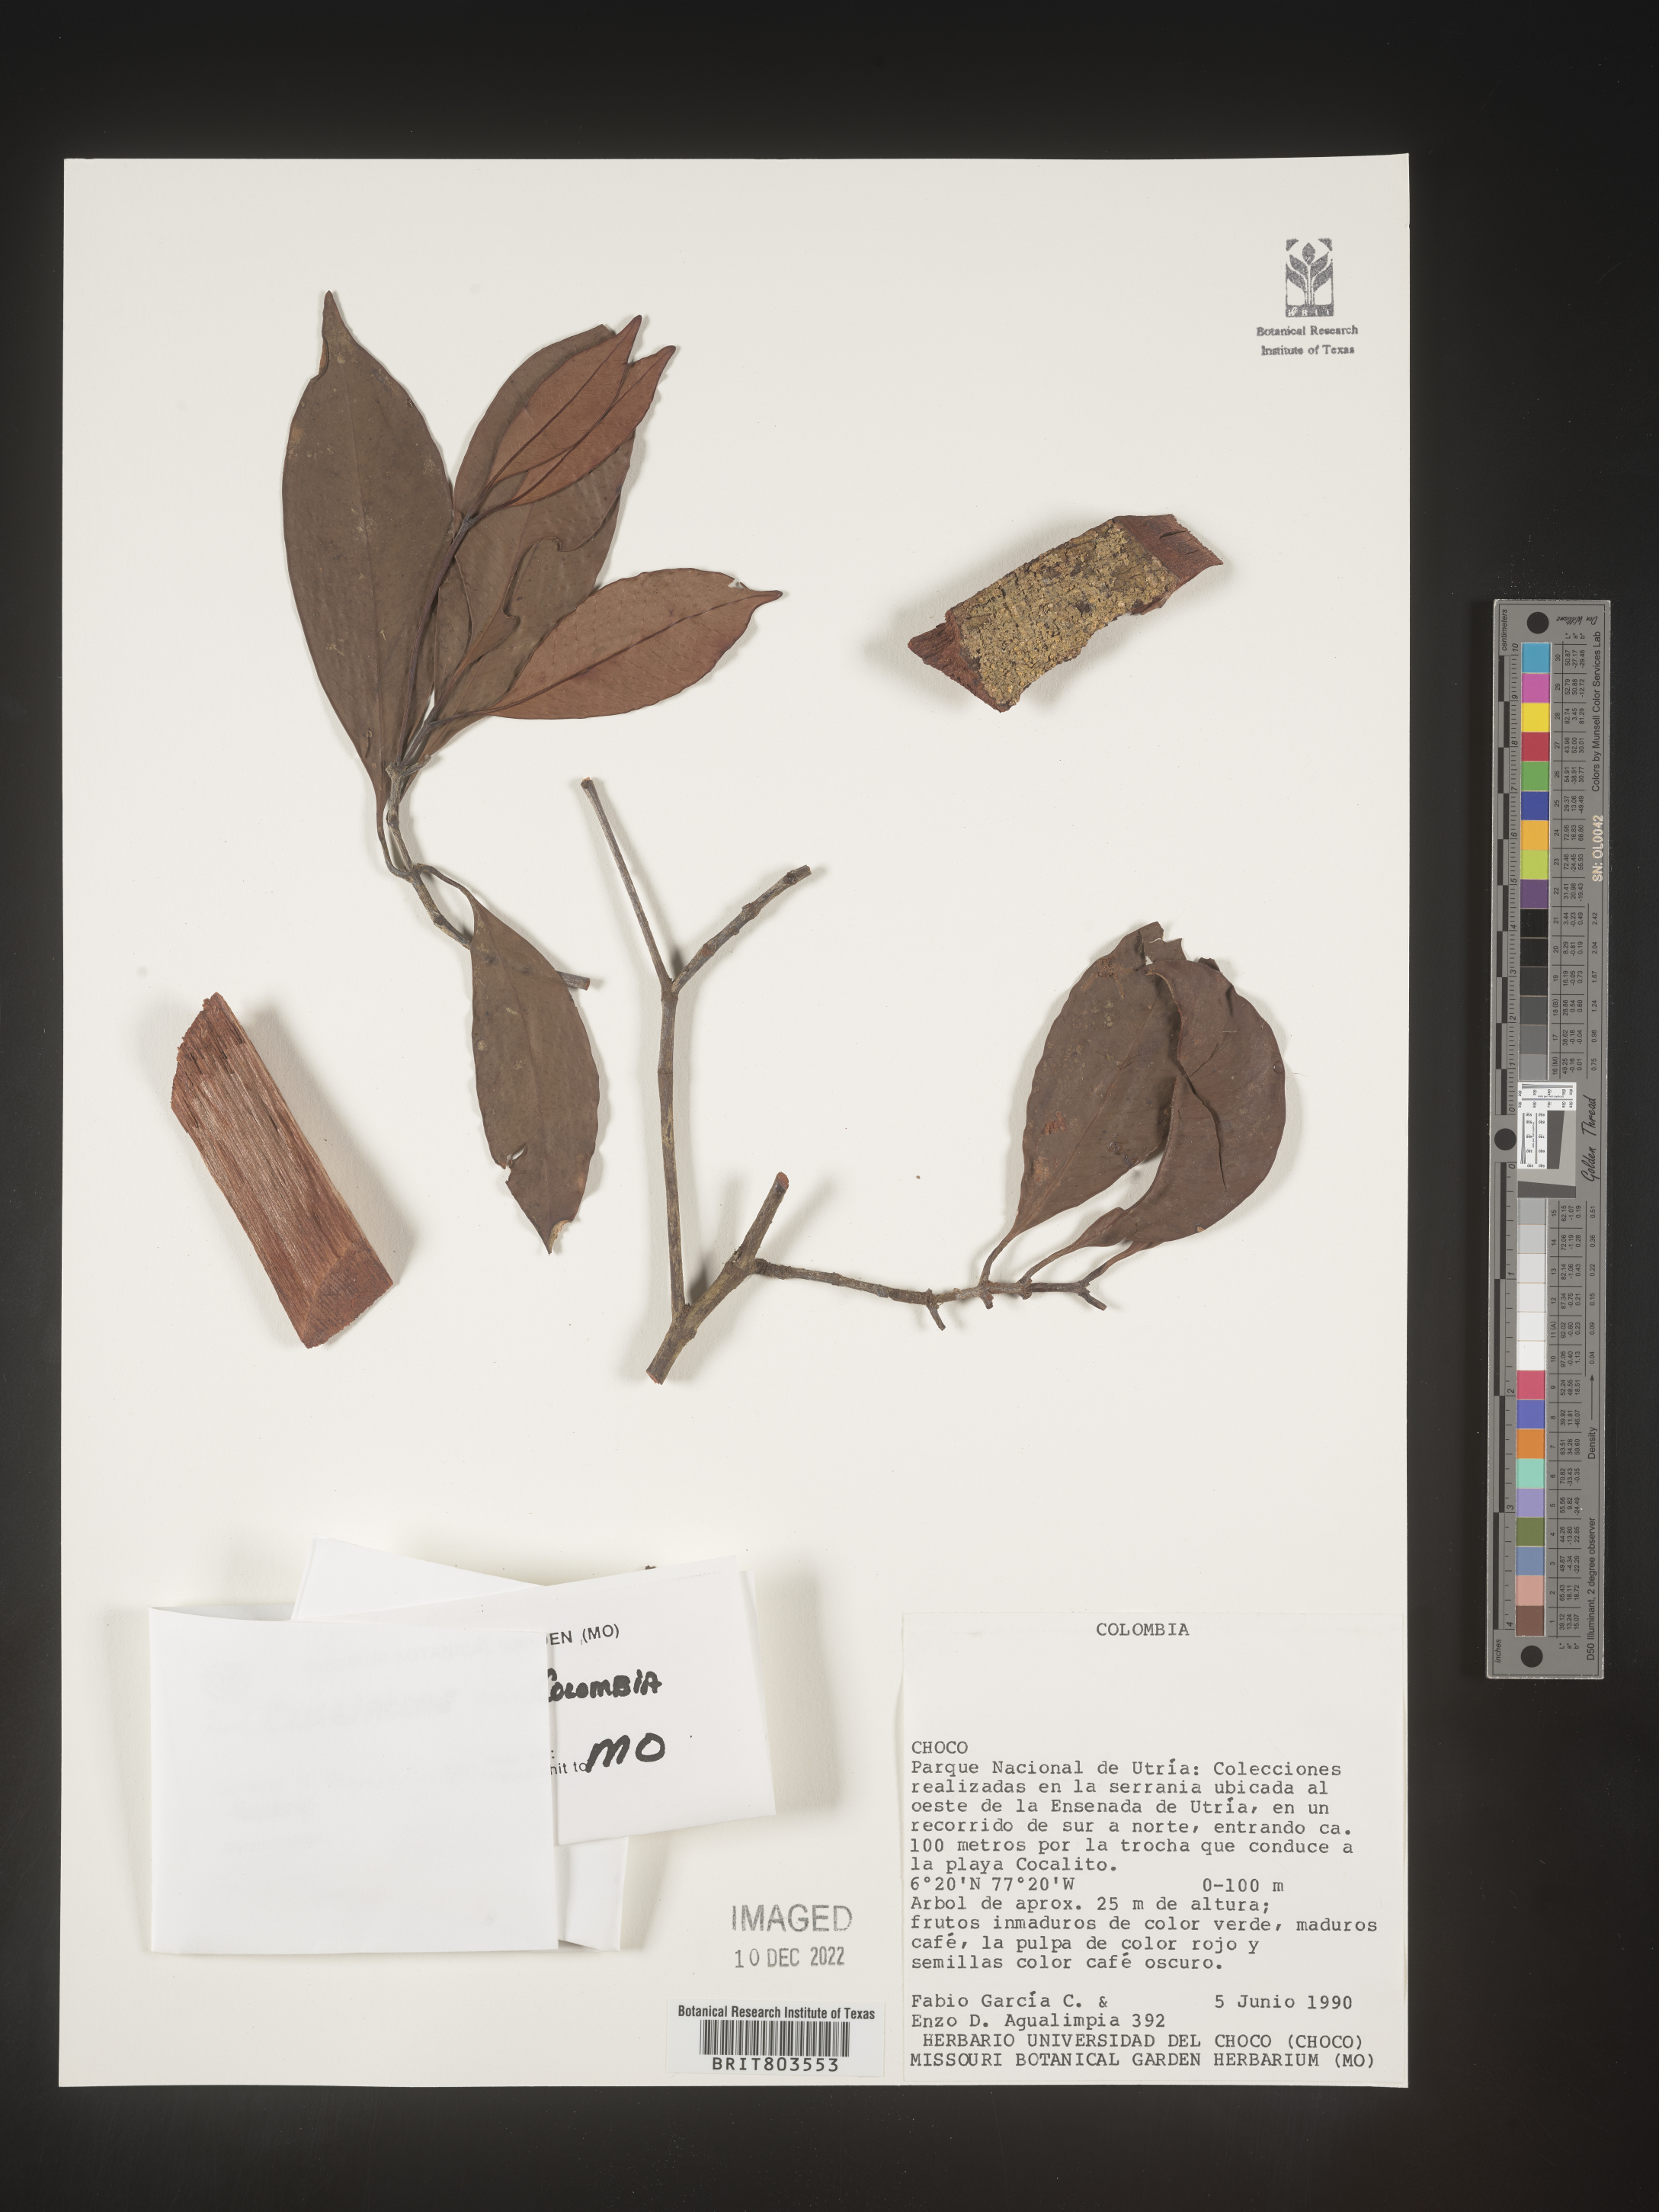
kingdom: Plantae
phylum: Tracheophyta
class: Magnoliopsida
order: Malpighiales
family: Clusiaceae
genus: Tovomita
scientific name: Tovomita
